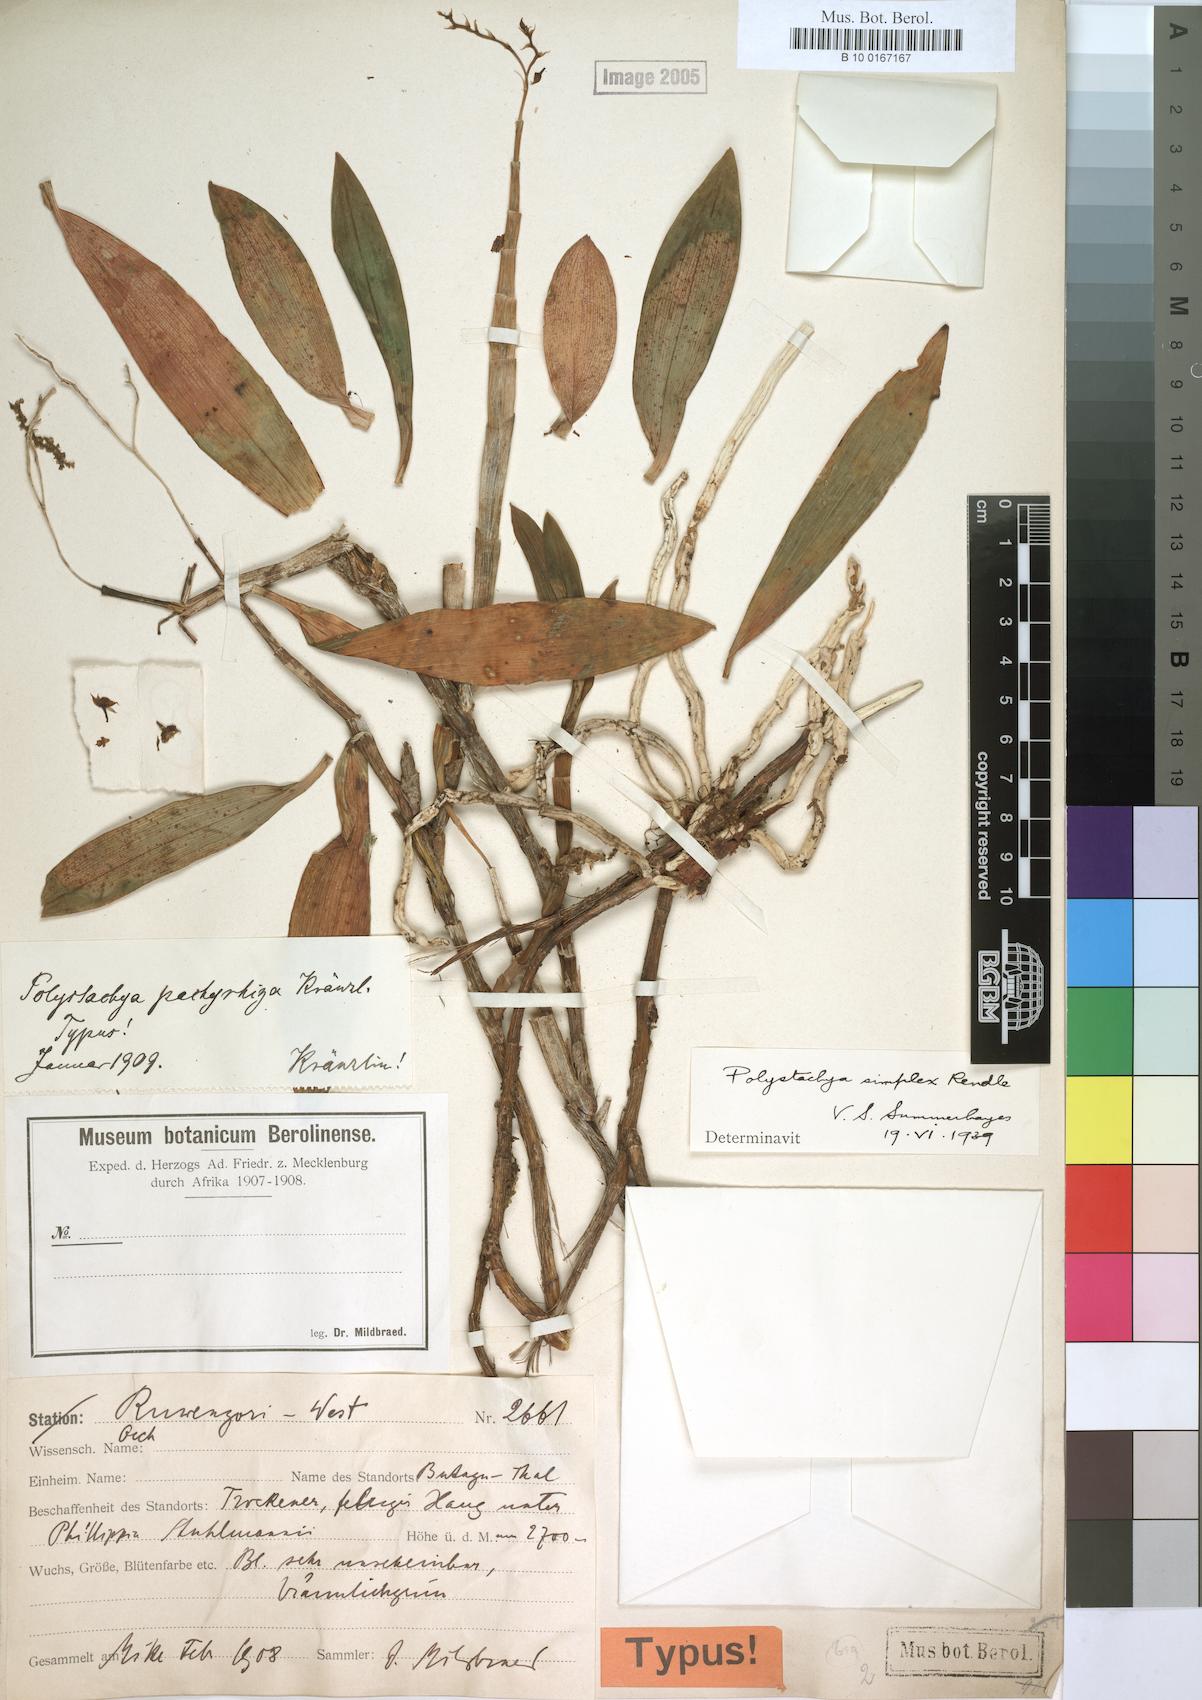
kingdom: Plantae
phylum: Tracheophyta
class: Liliopsida
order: Asparagales
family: Orchidaceae
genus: Polystachya
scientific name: Polystachya simplex
